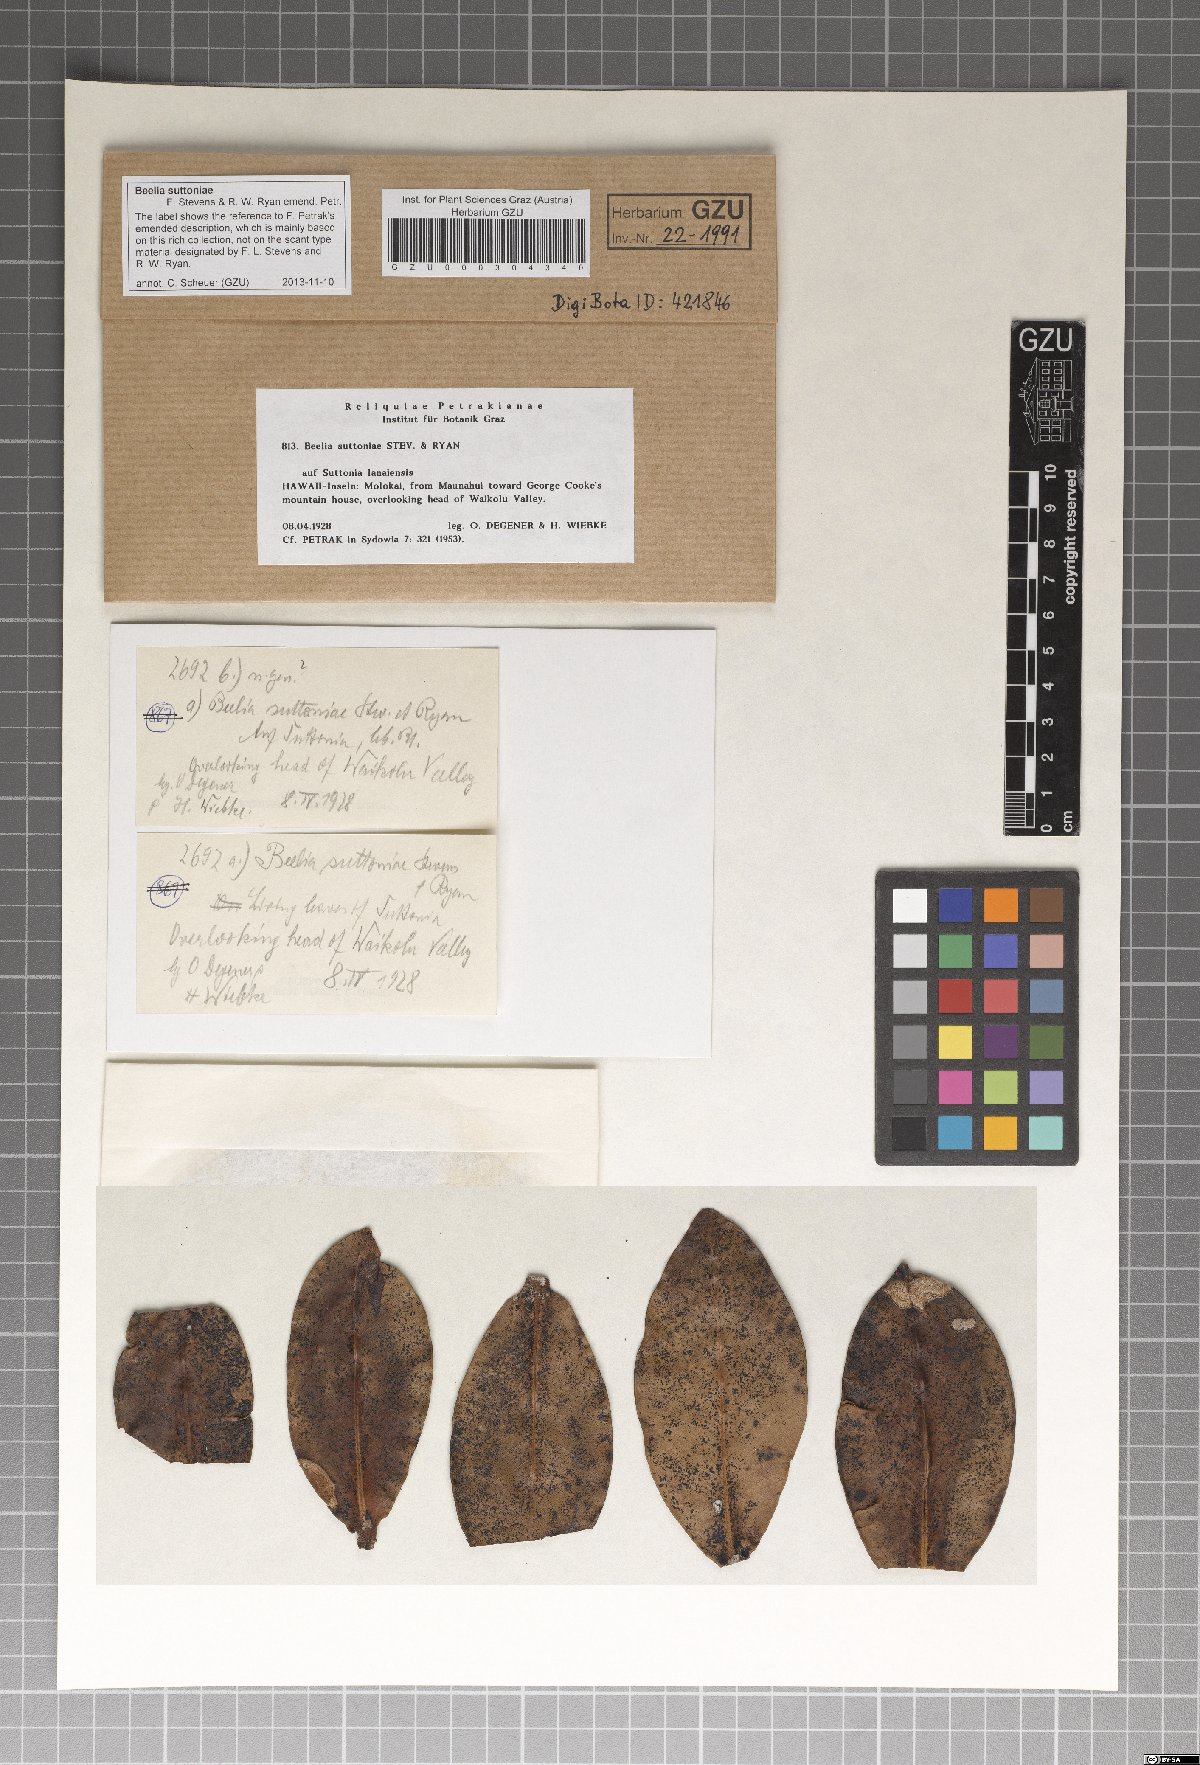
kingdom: Fungi
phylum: Ascomycota
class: Dothideomycetes
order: Myriangiales
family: Elsinoaceae
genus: Beelia
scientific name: Beelia suttoniae
